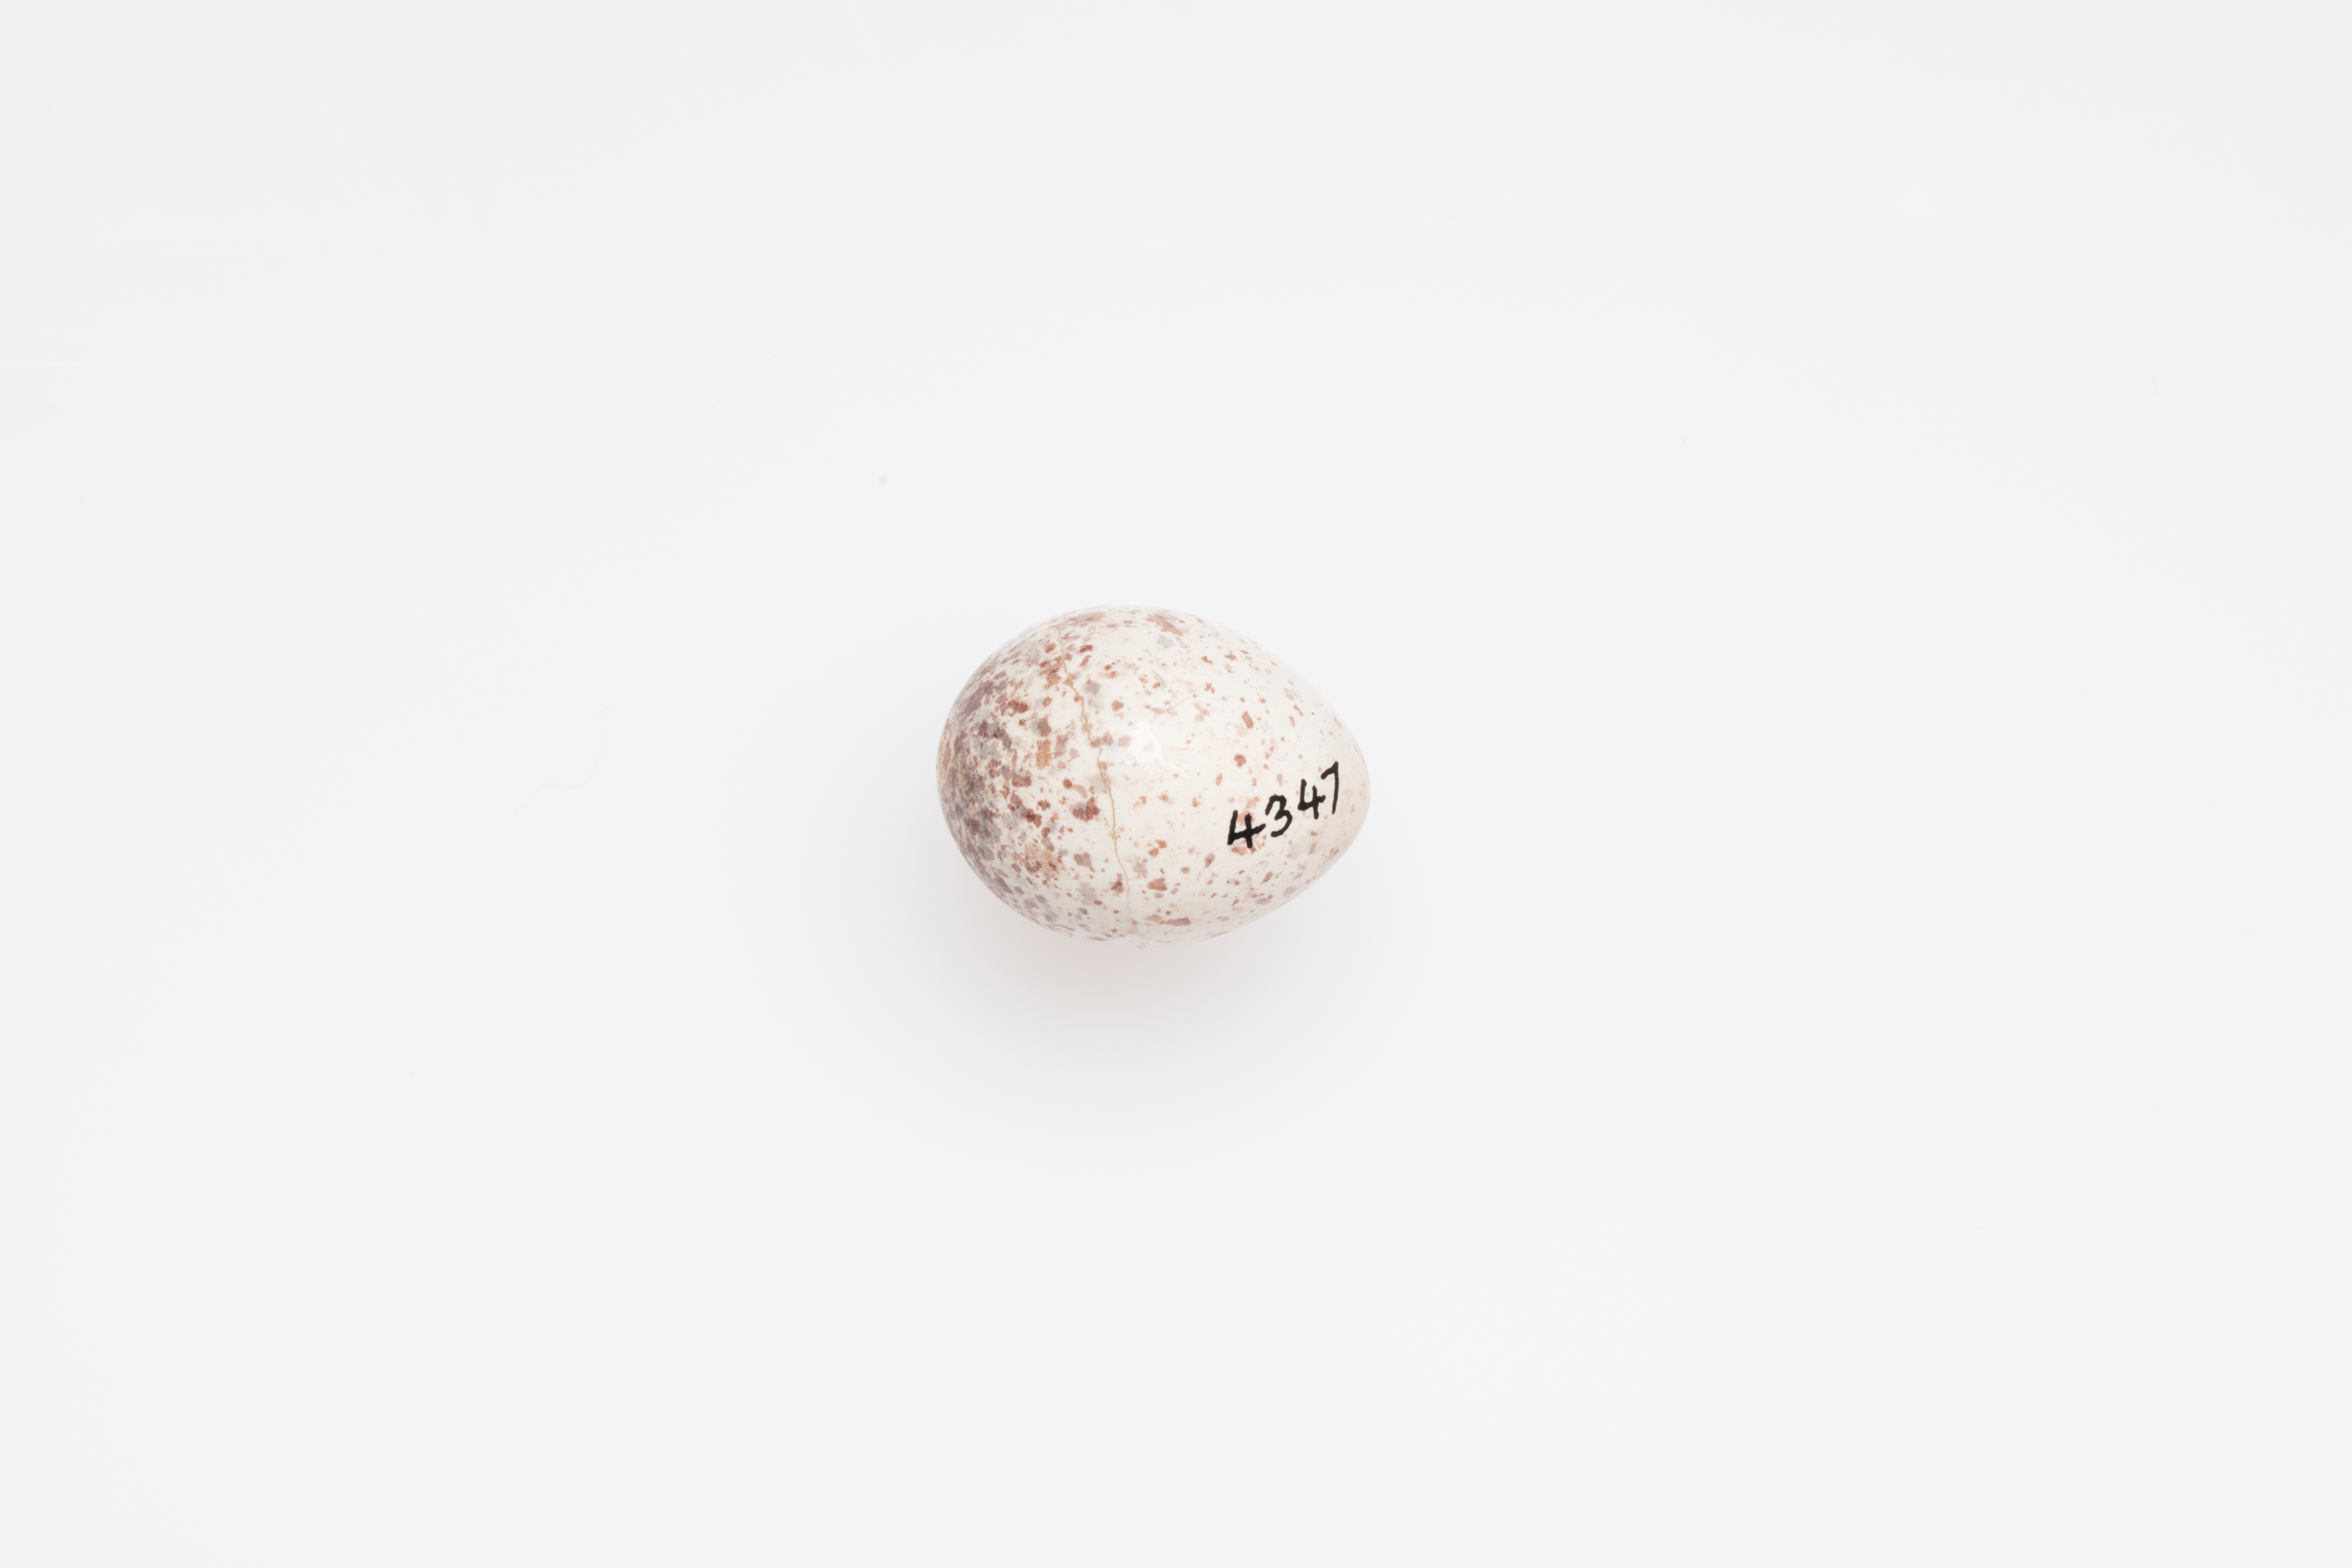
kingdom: Animalia
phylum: Chordata
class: Aves
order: Passeriformes
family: Locustellidae
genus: Megalurus
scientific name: Megalurus punctatus
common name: New zealand fernbird
